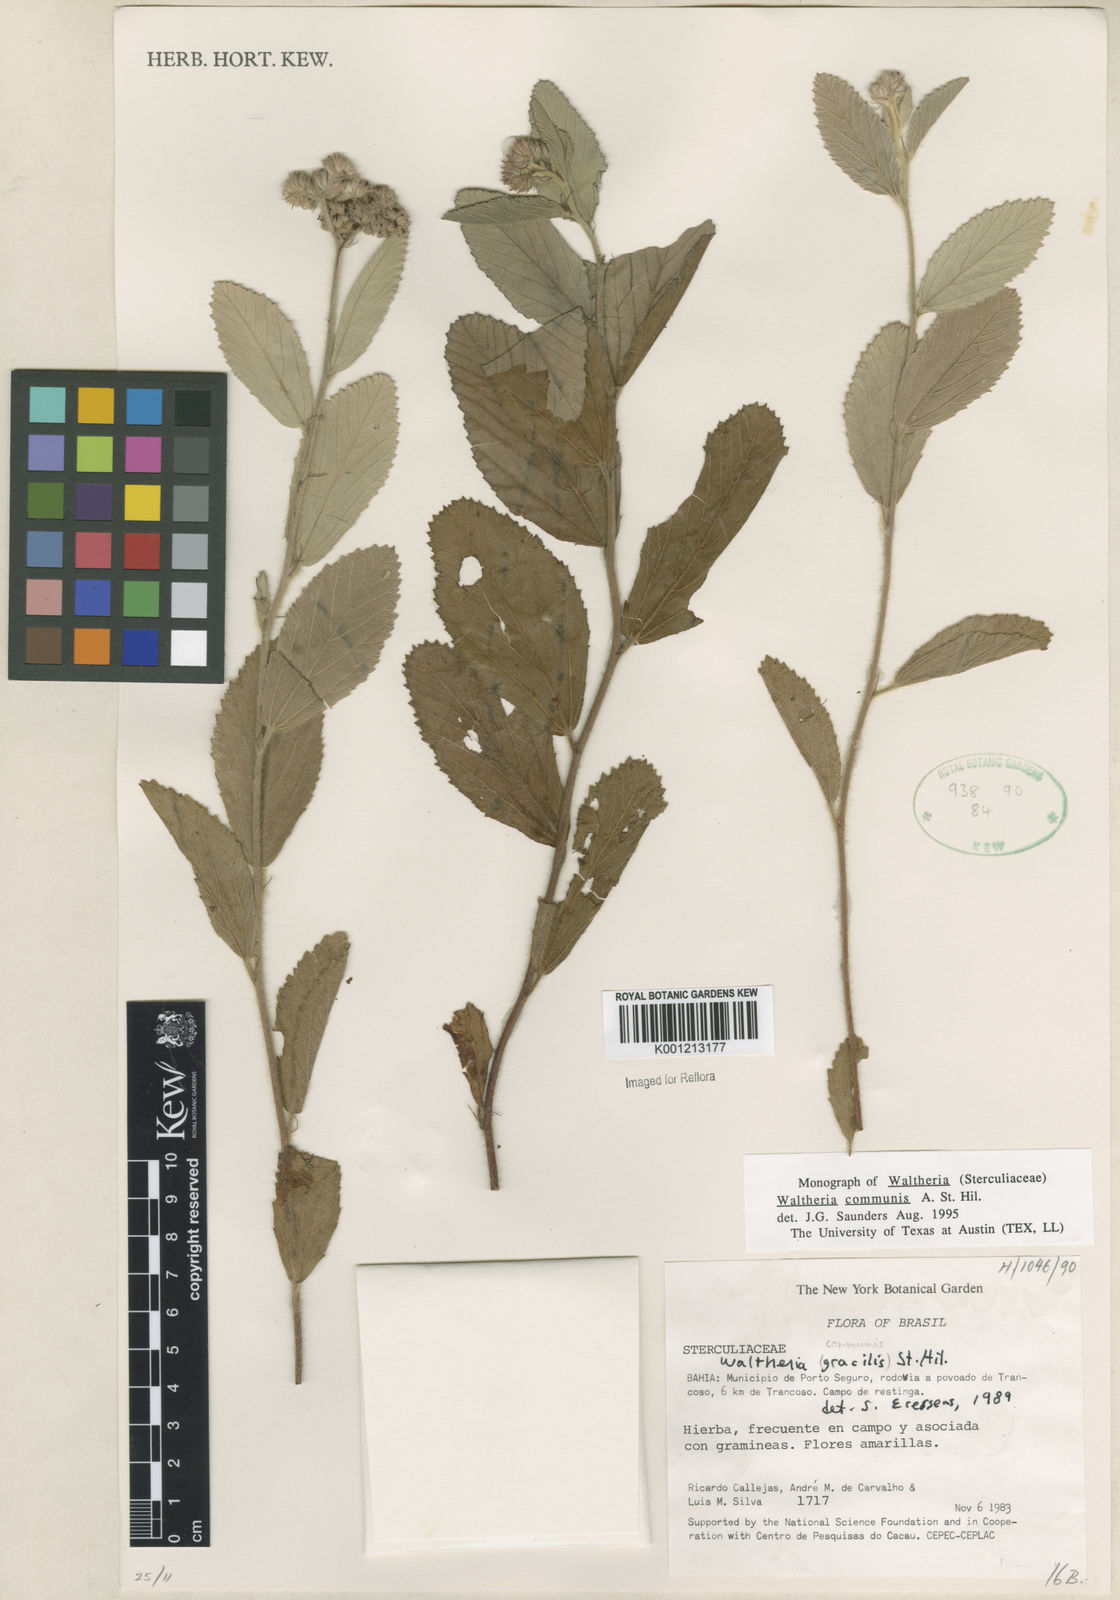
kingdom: Plantae
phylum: Tracheophyta
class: Magnoliopsida
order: Malvales
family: Malvaceae
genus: Waltheria
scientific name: Waltheria communis
